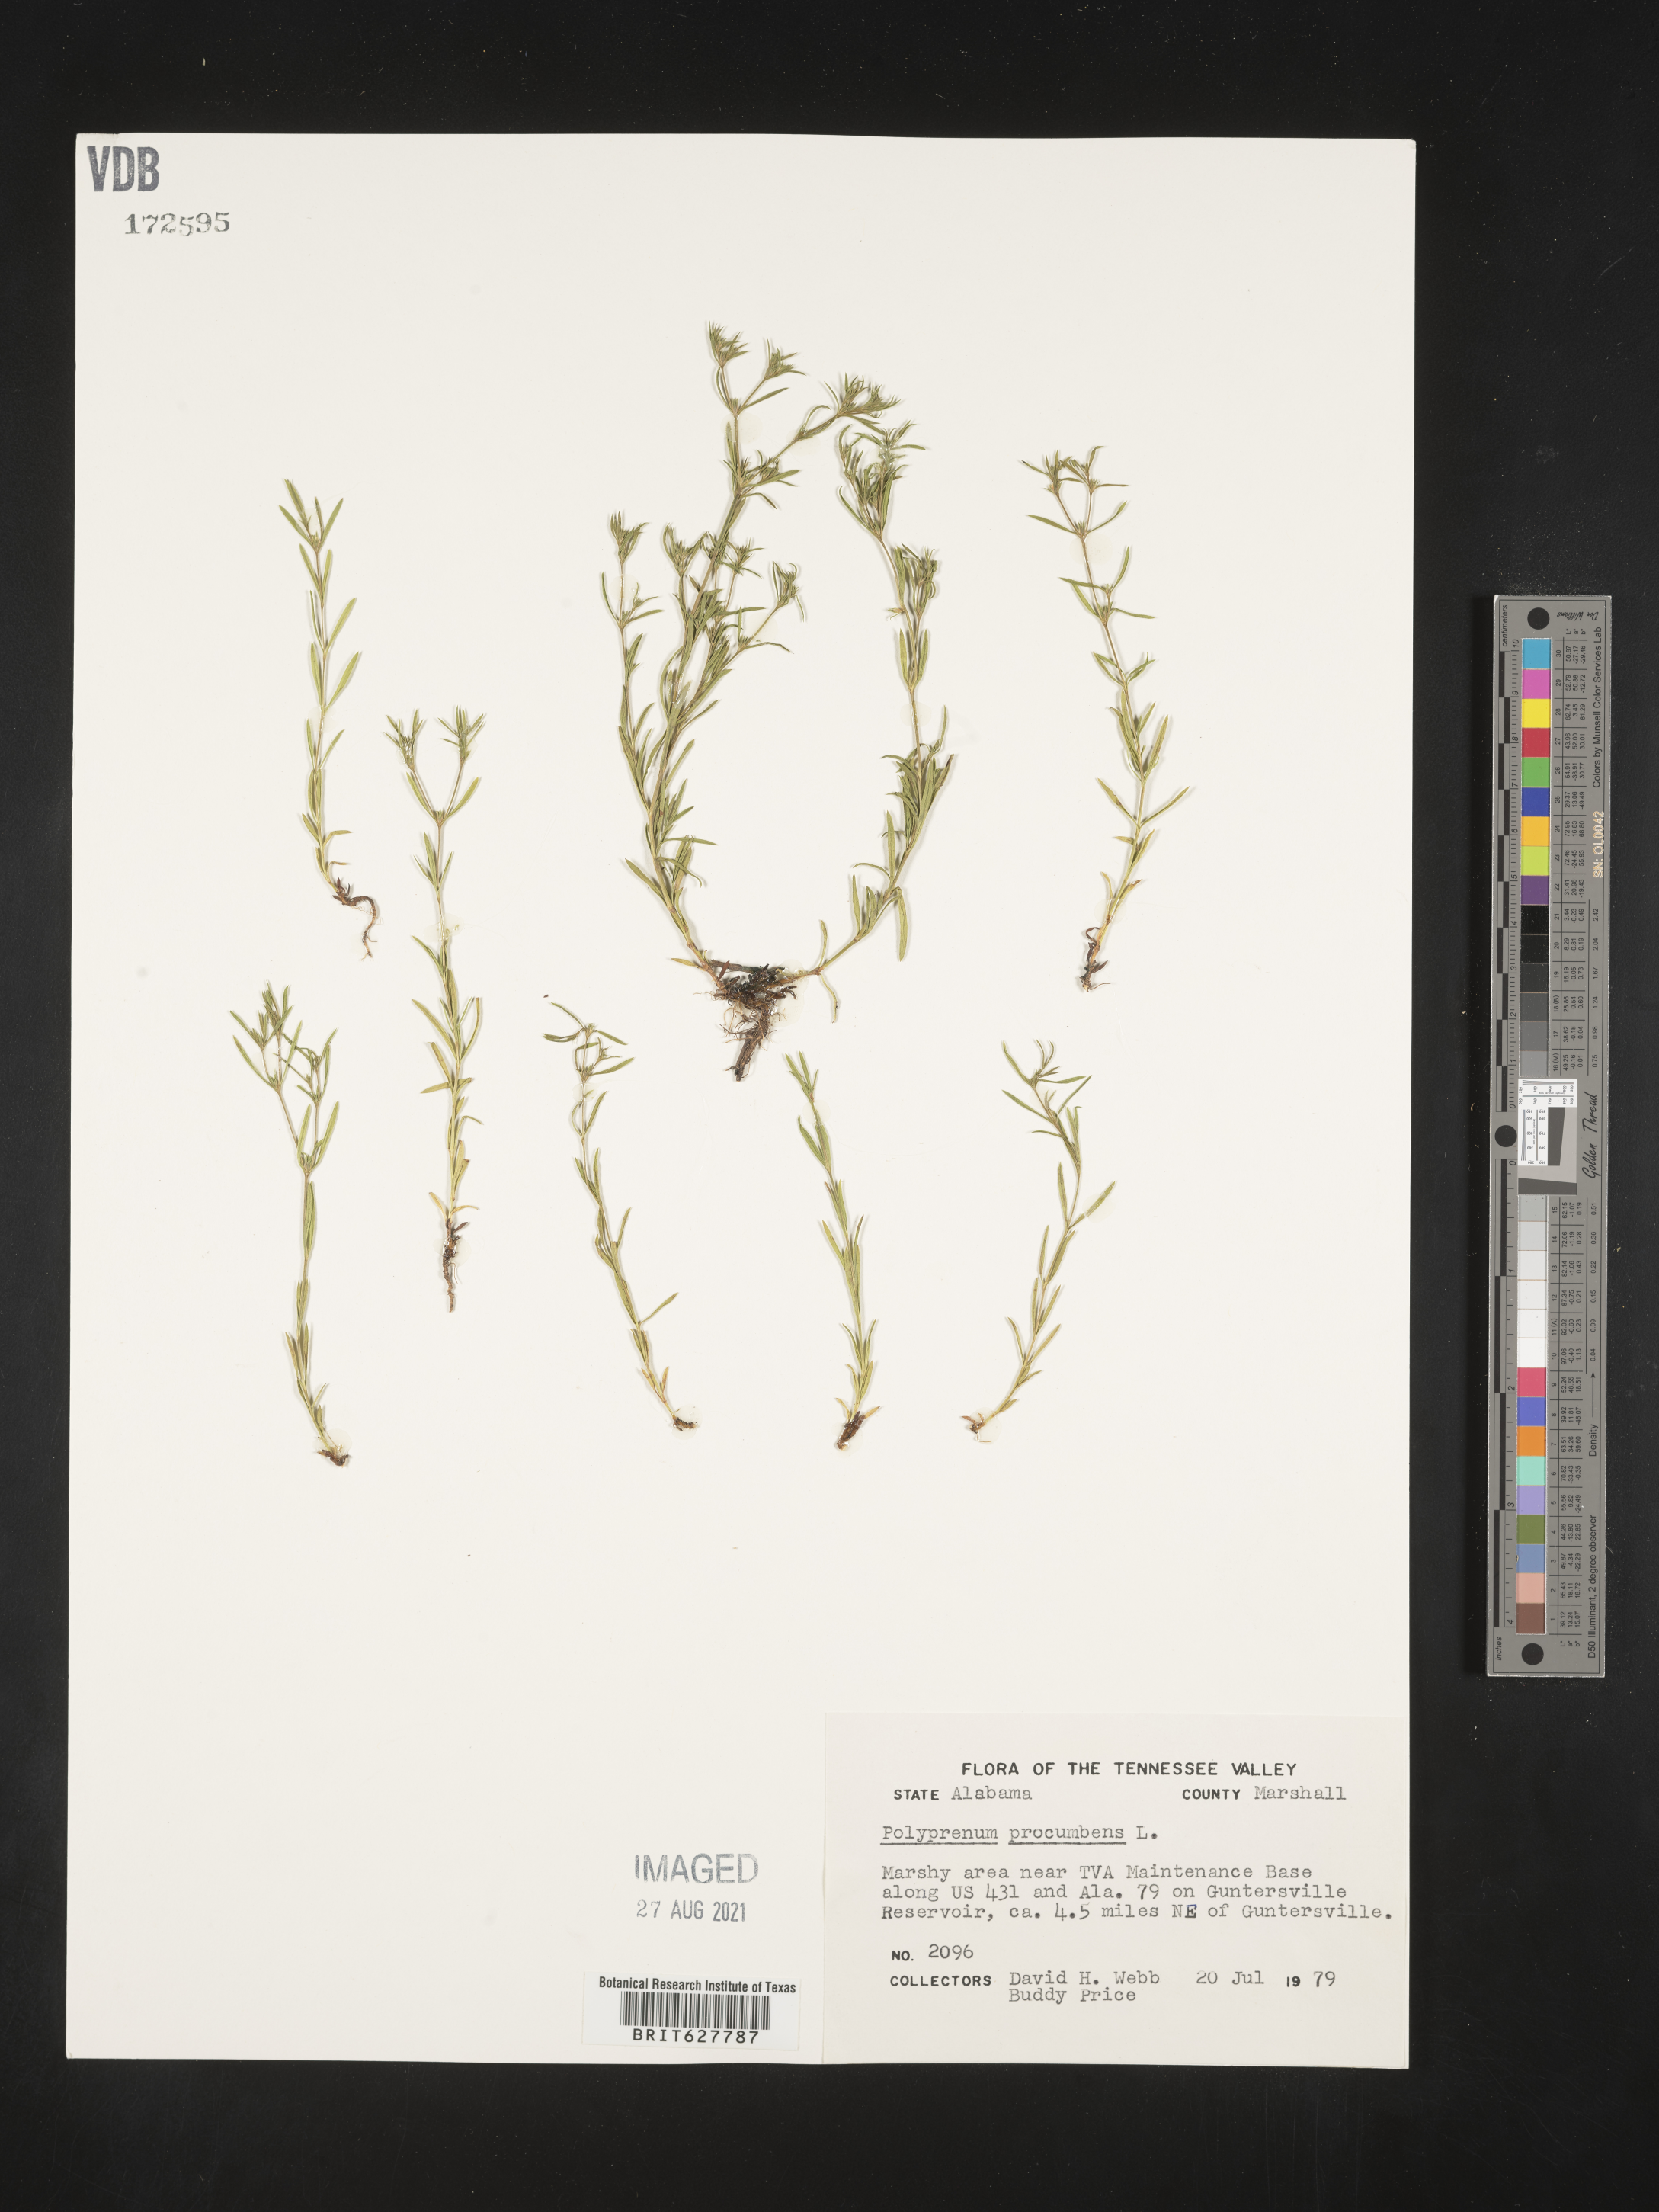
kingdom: Plantae
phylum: Tracheophyta
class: Magnoliopsida
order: Lamiales
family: Tetrachondraceae
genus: Polypremum
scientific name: Polypremum procumbens
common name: Juniper-leaf
